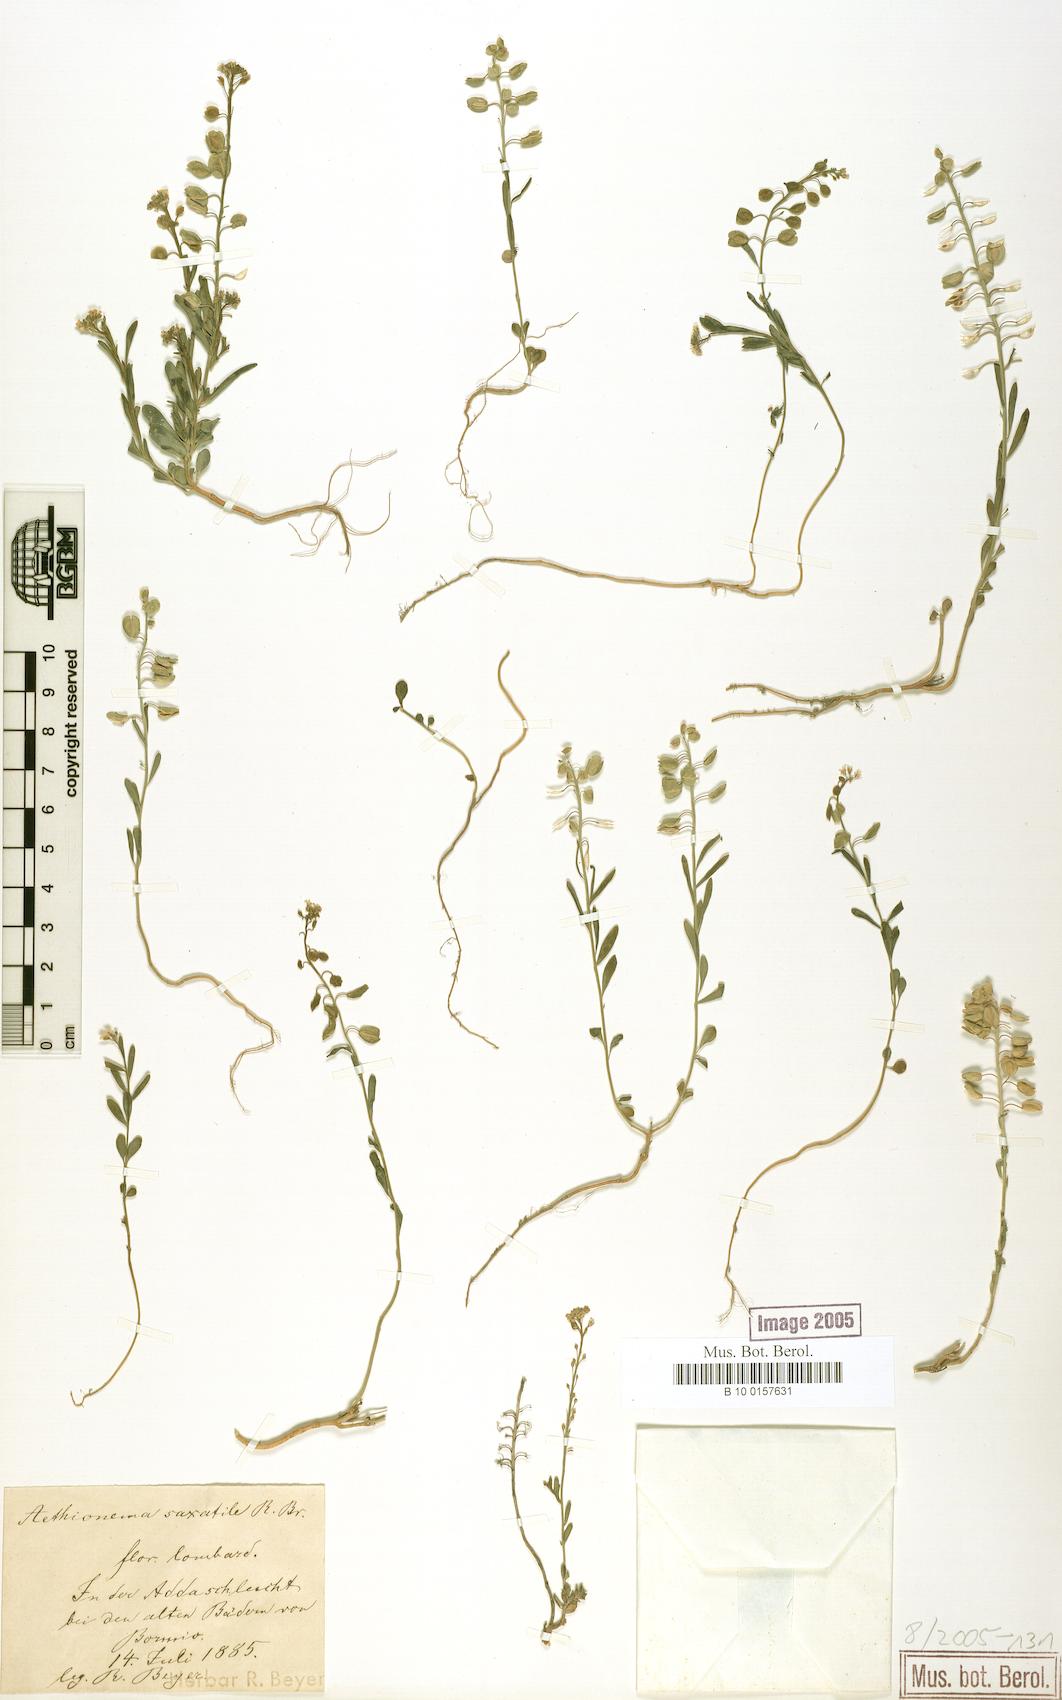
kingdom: Plantae
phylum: Tracheophyta
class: Magnoliopsida
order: Brassicales
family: Brassicaceae
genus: Aethionema
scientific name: Aethionema saxatile
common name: Burnt candytuft
